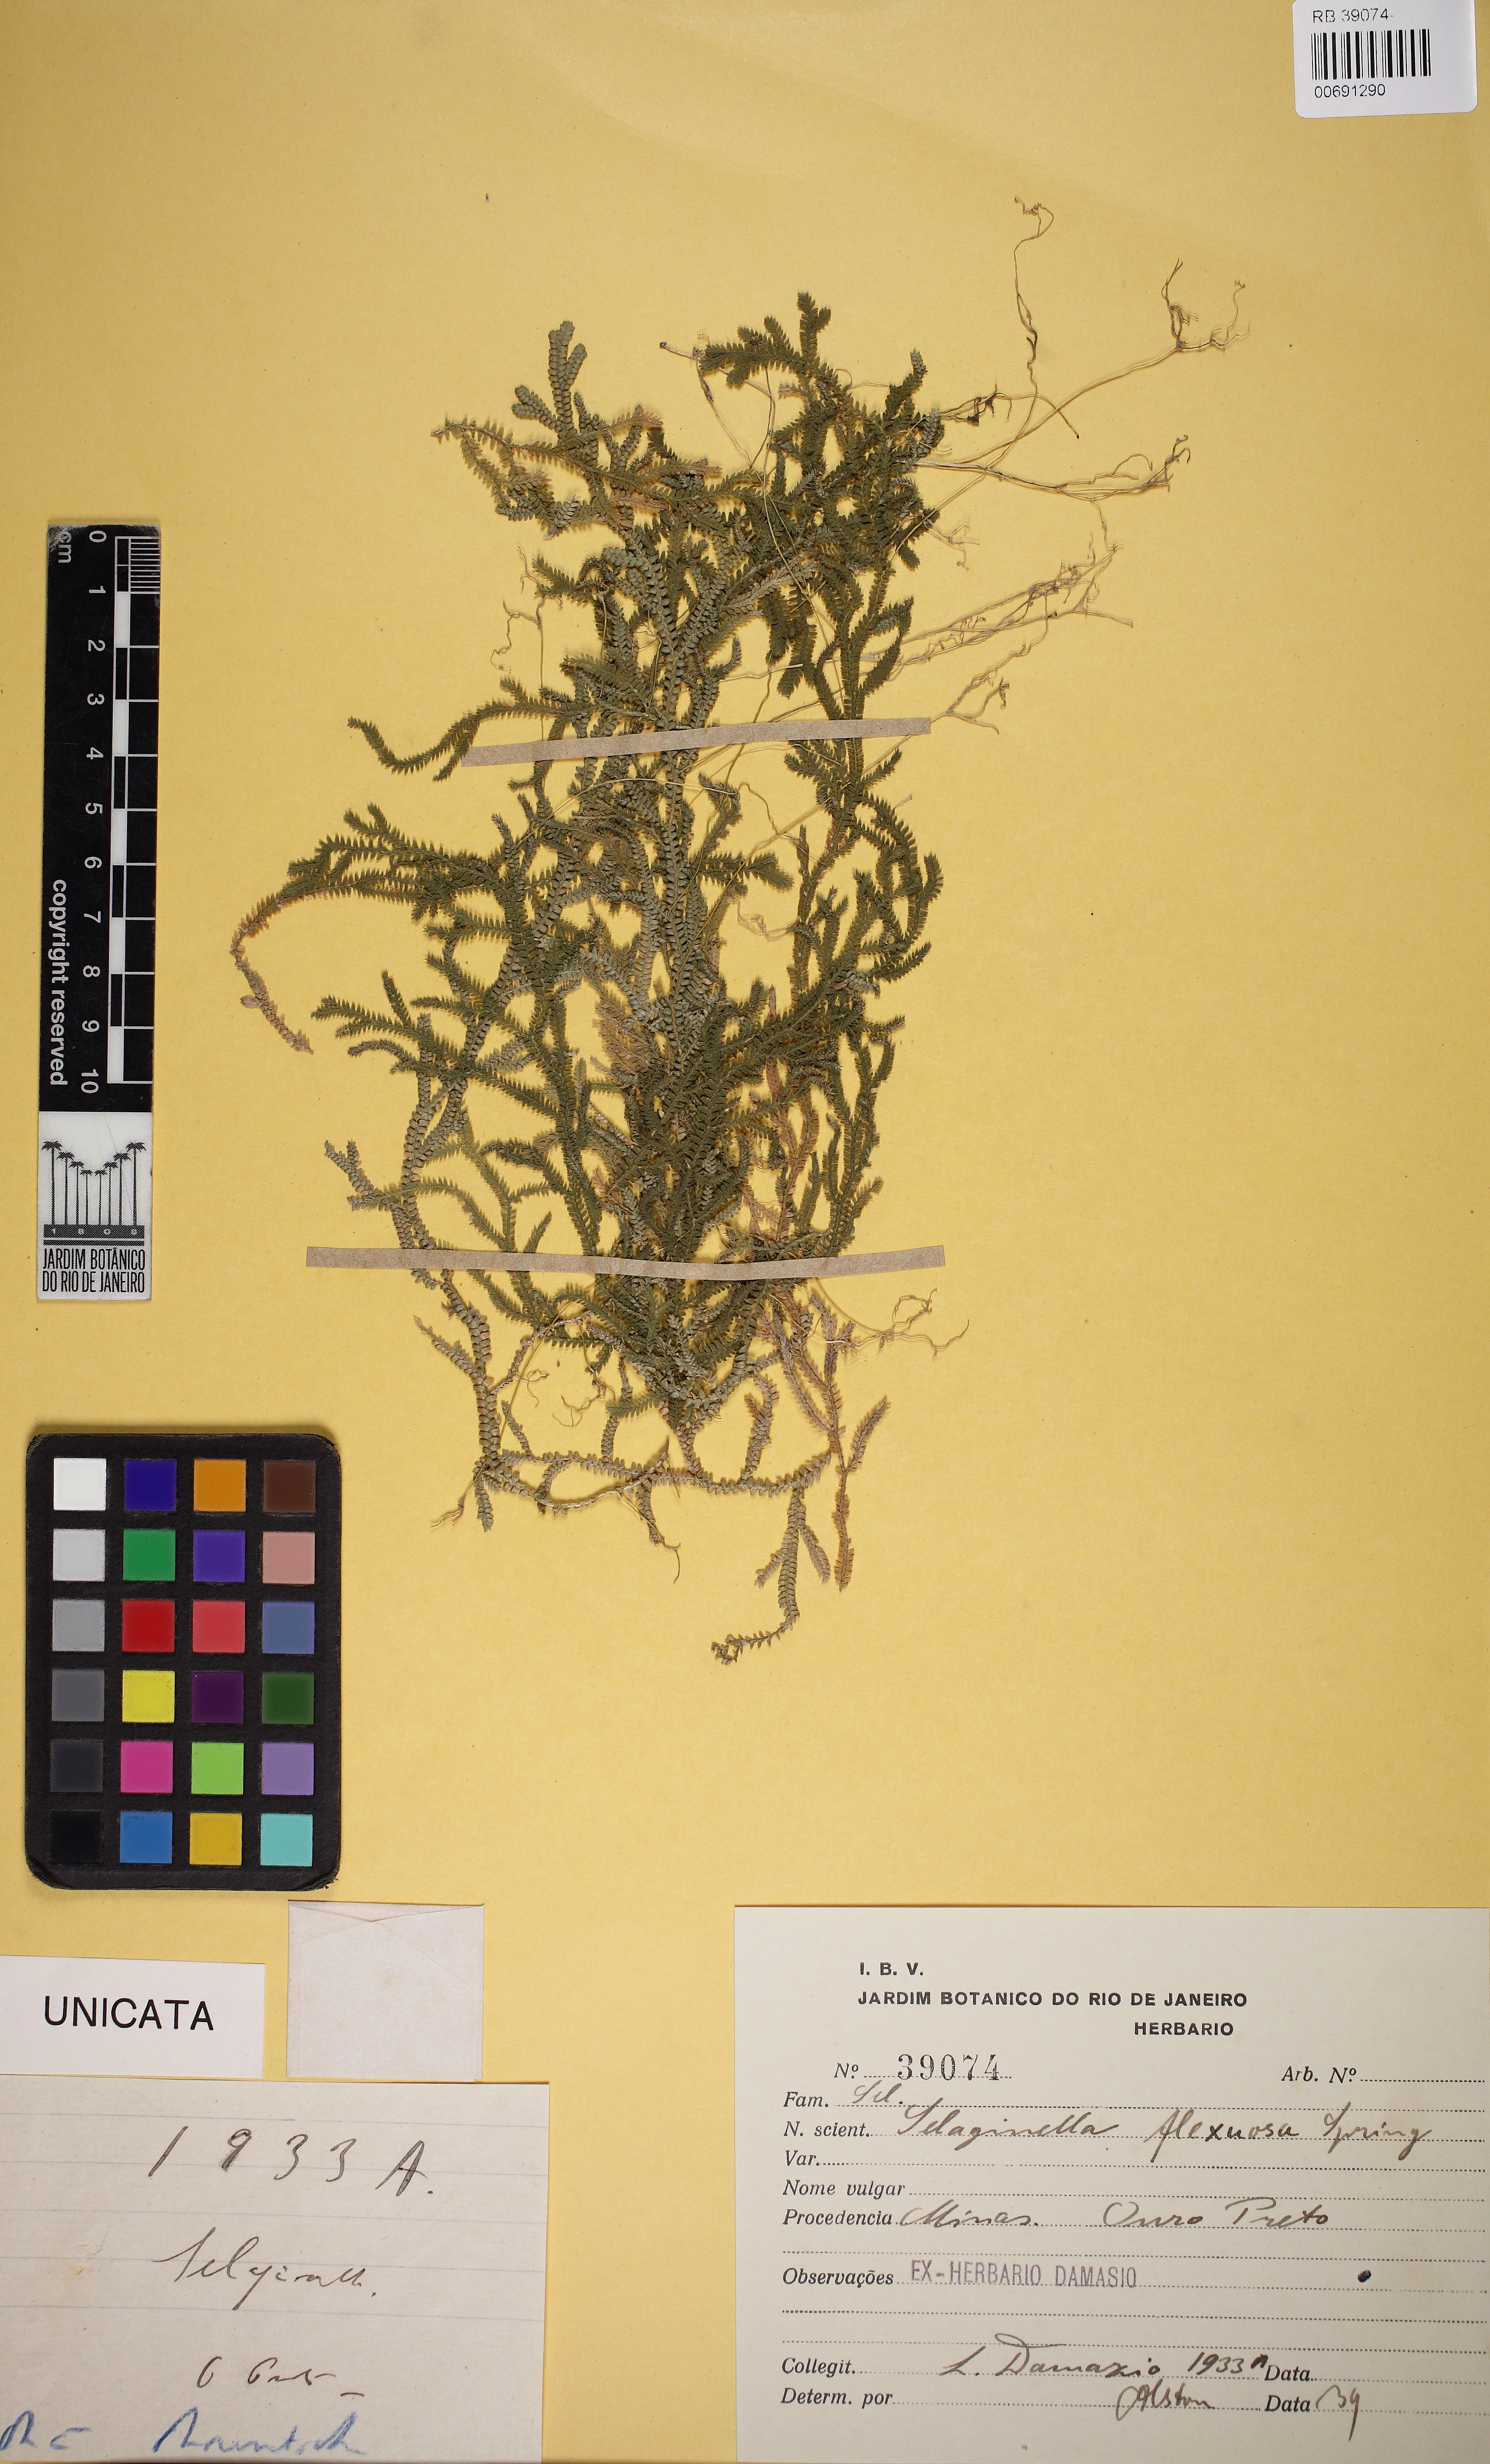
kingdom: Plantae
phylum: Tracheophyta
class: Lycopodiopsida
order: Selaginellales
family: Selaginellaceae
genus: Selaginella
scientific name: Selaginella flexuosa
